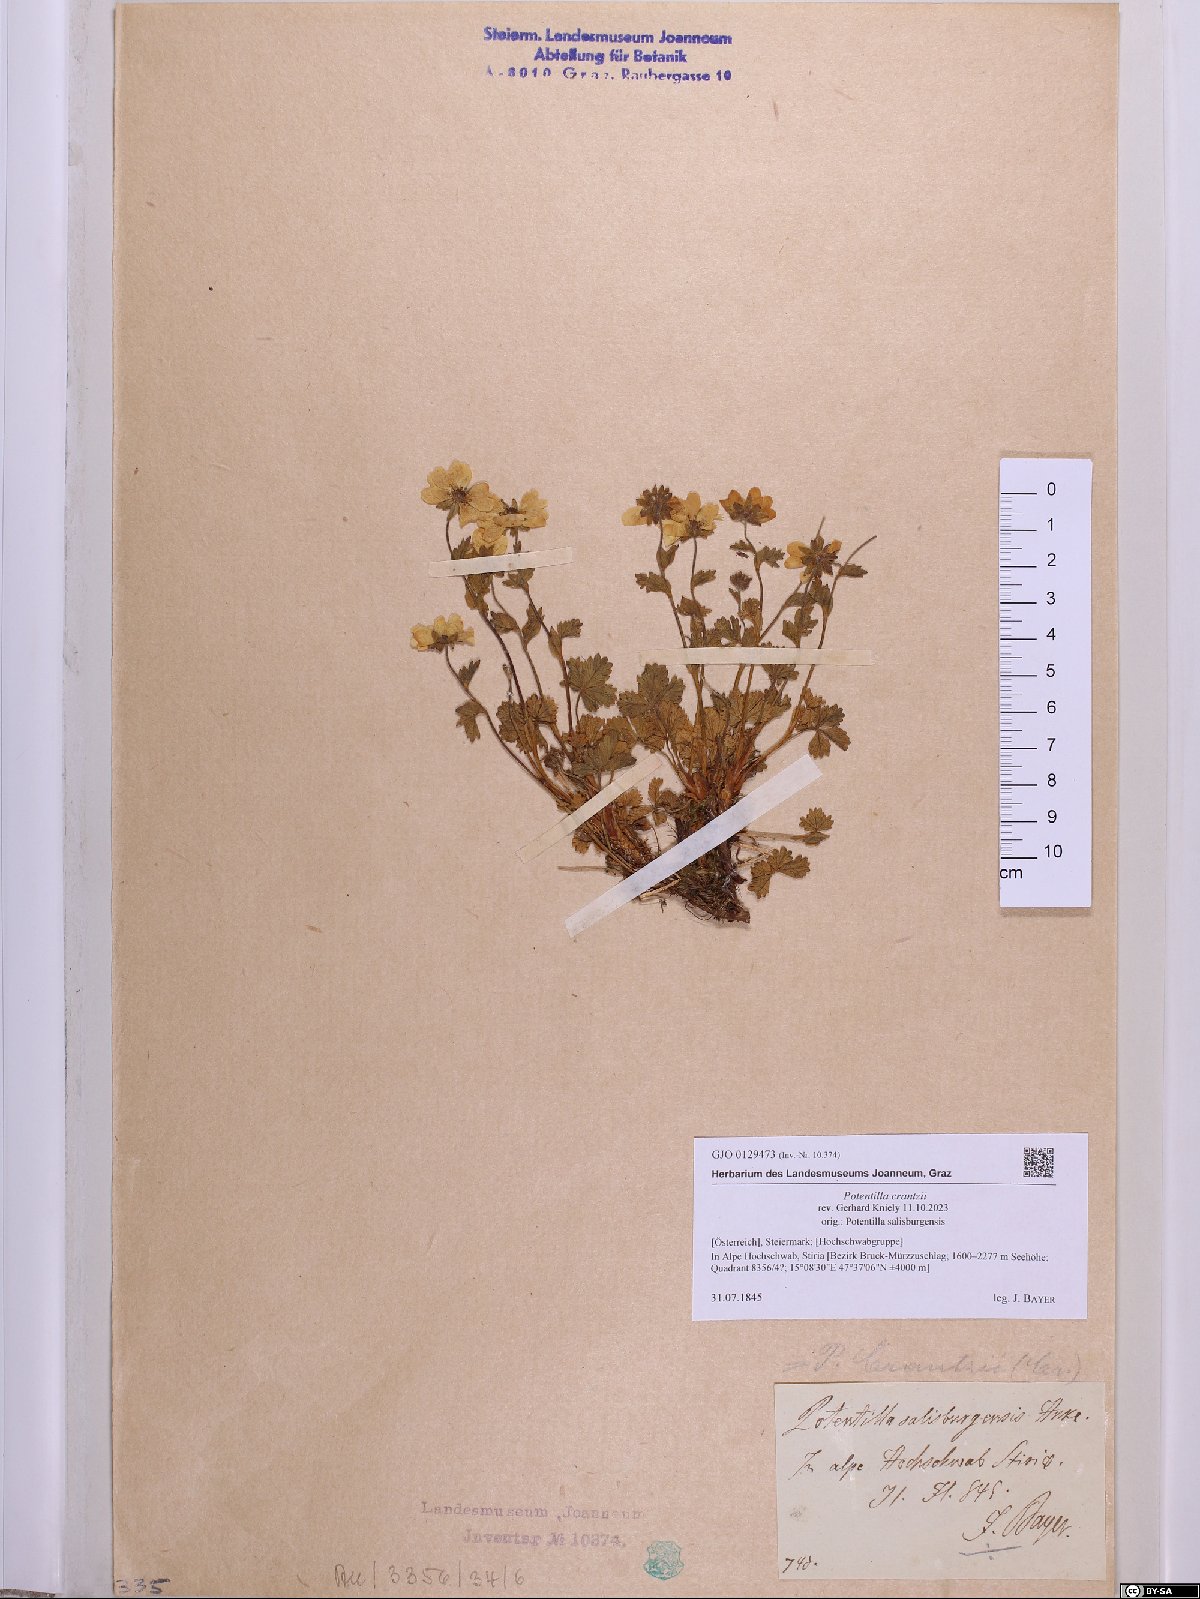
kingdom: Plantae
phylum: Tracheophyta
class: Magnoliopsida
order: Rosales
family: Rosaceae
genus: Potentilla
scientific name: Potentilla crantzii
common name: Alpine cinquefoil
